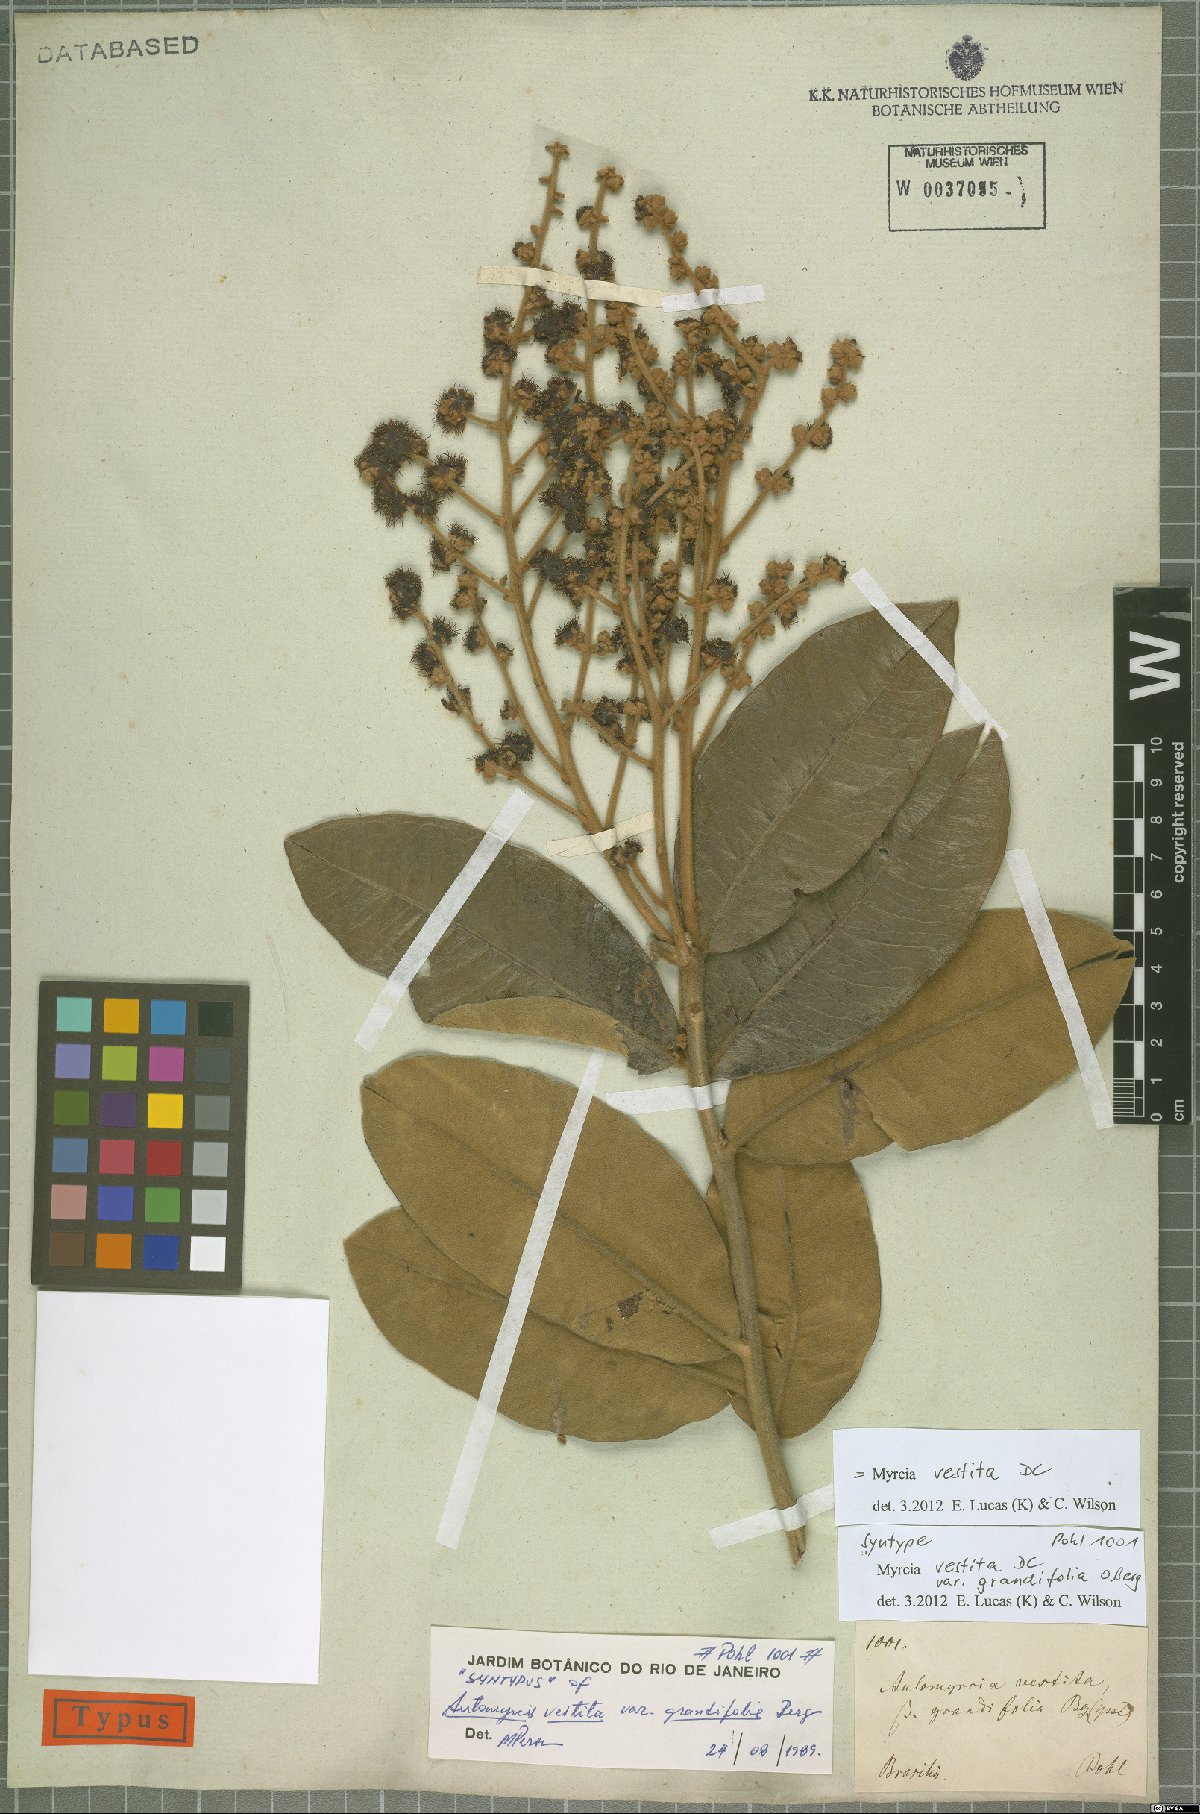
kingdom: Plantae
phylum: Tracheophyta
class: Magnoliopsida
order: Myrtales
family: Myrtaceae
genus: Myrcia
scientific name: Myrcia vestita
